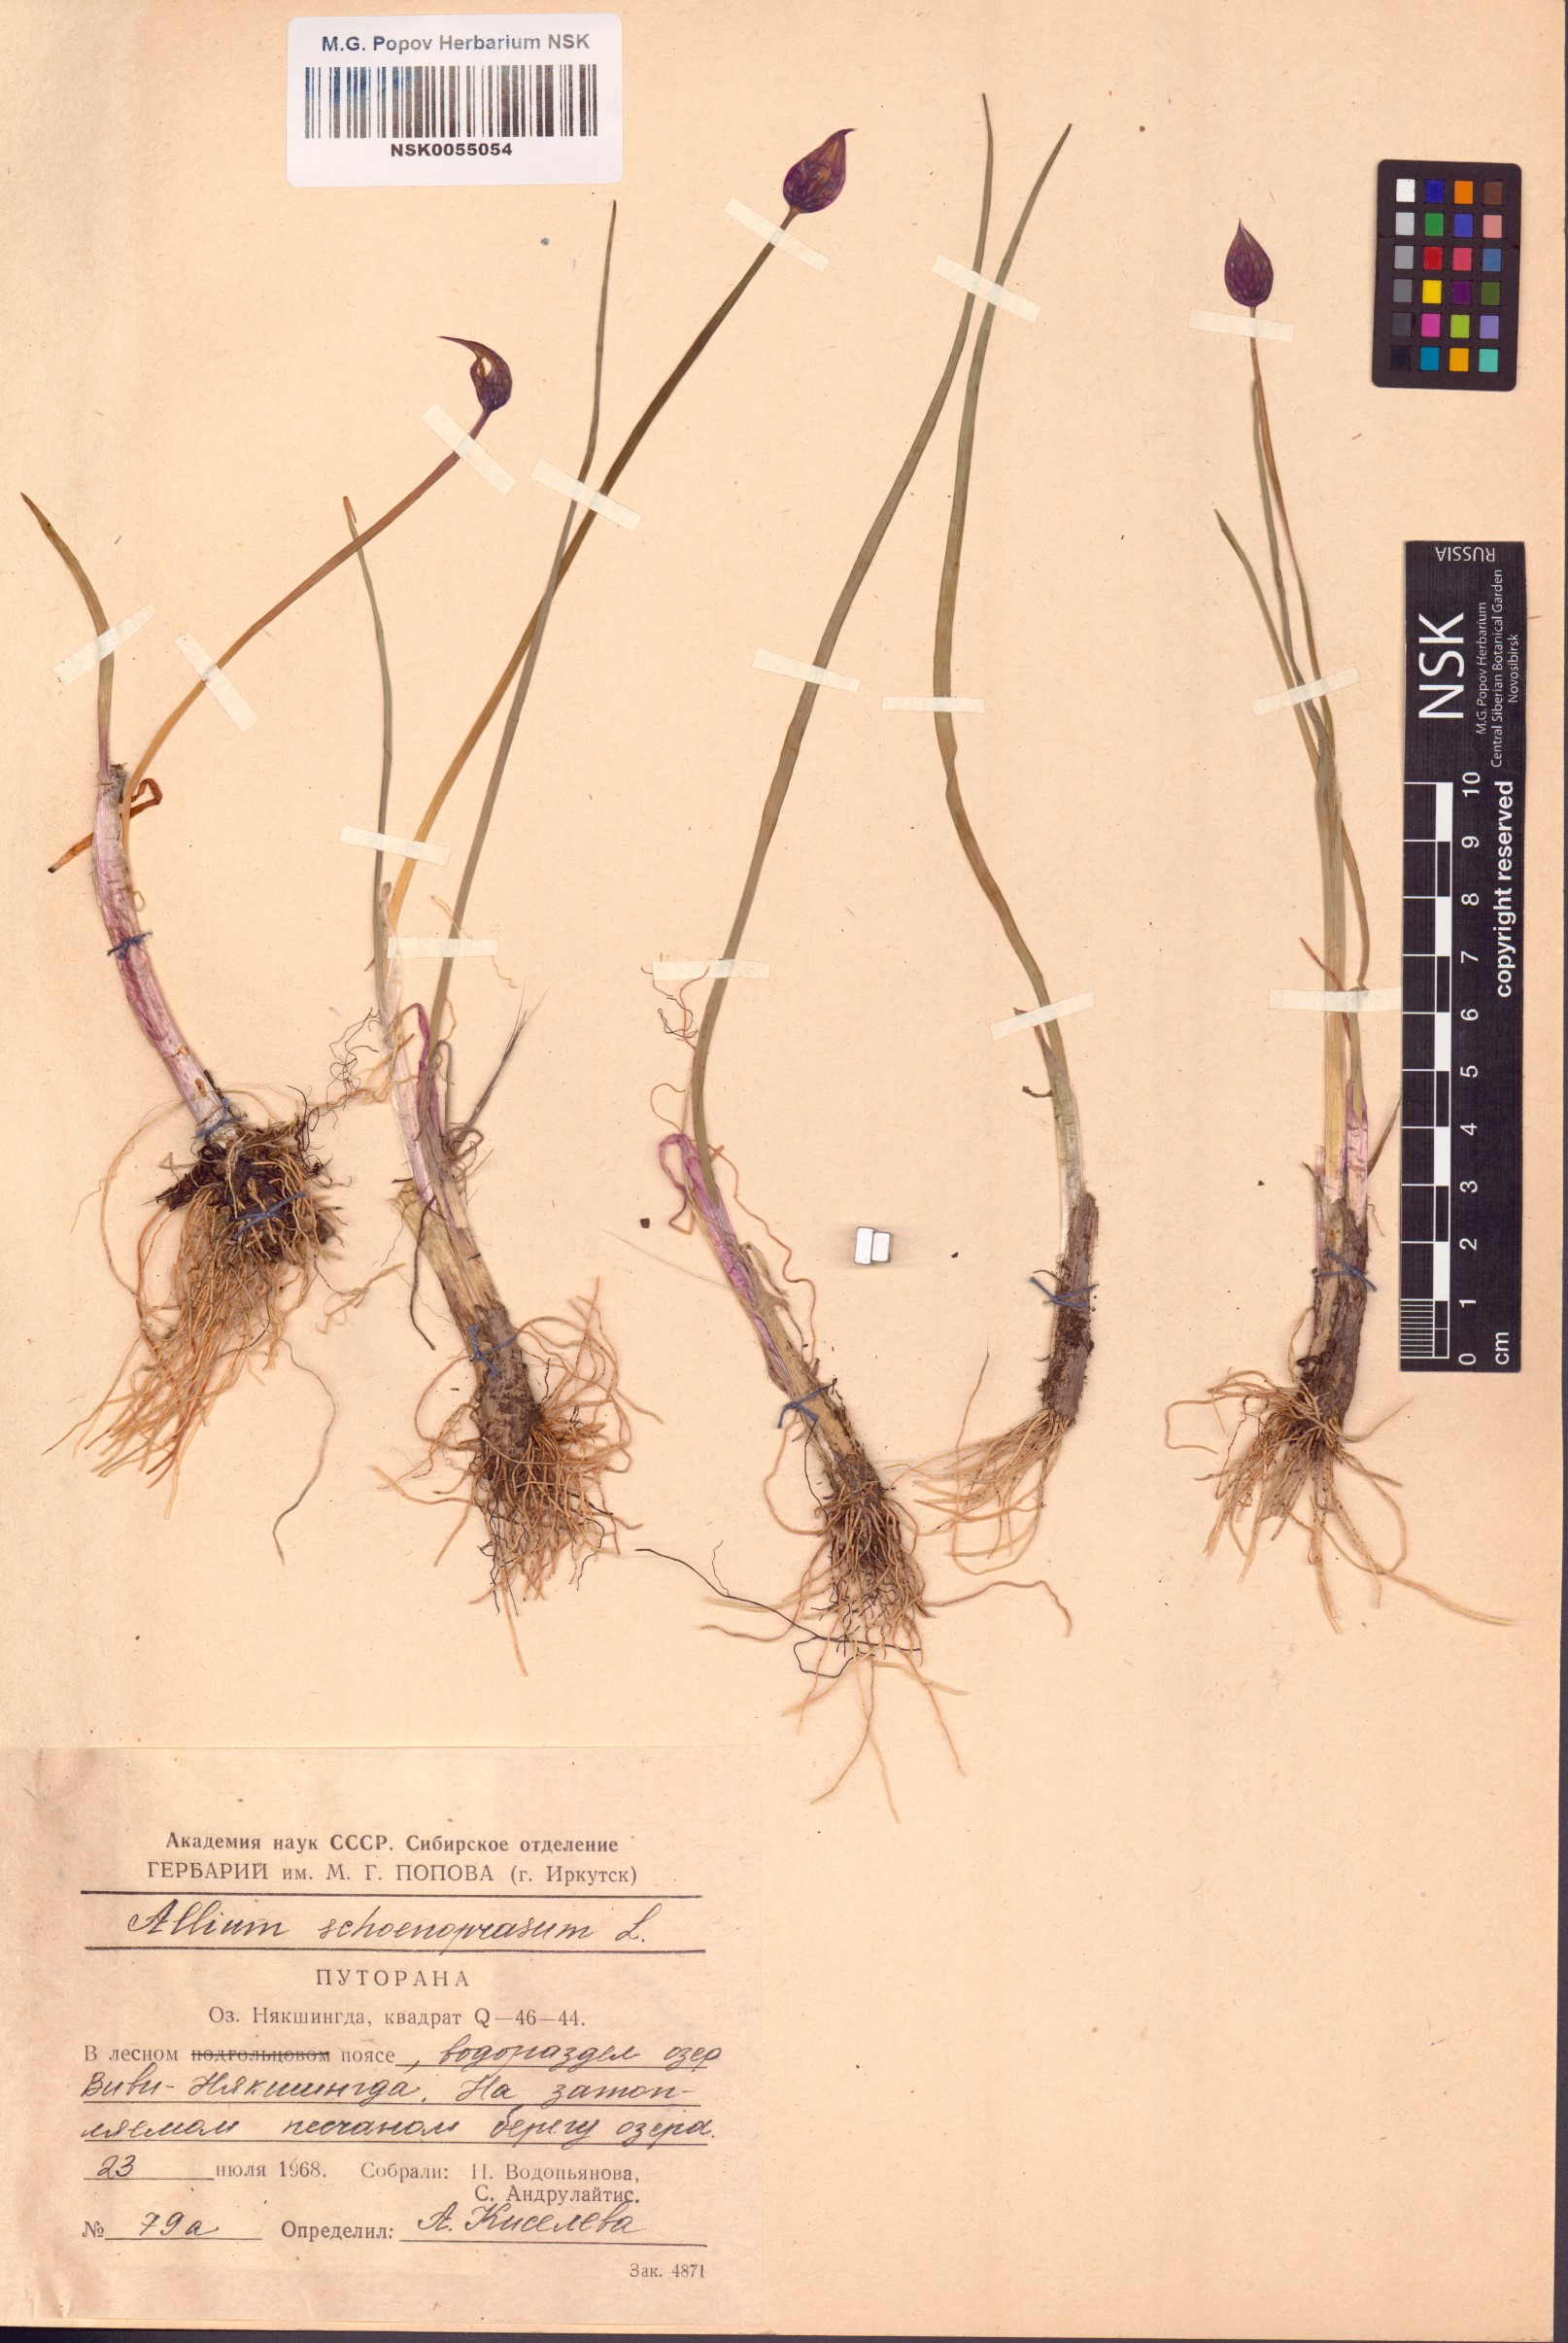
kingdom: Plantae
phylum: Tracheophyta
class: Liliopsida
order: Asparagales
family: Amaryllidaceae
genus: Allium
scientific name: Allium schoenoprasum
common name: Chives
